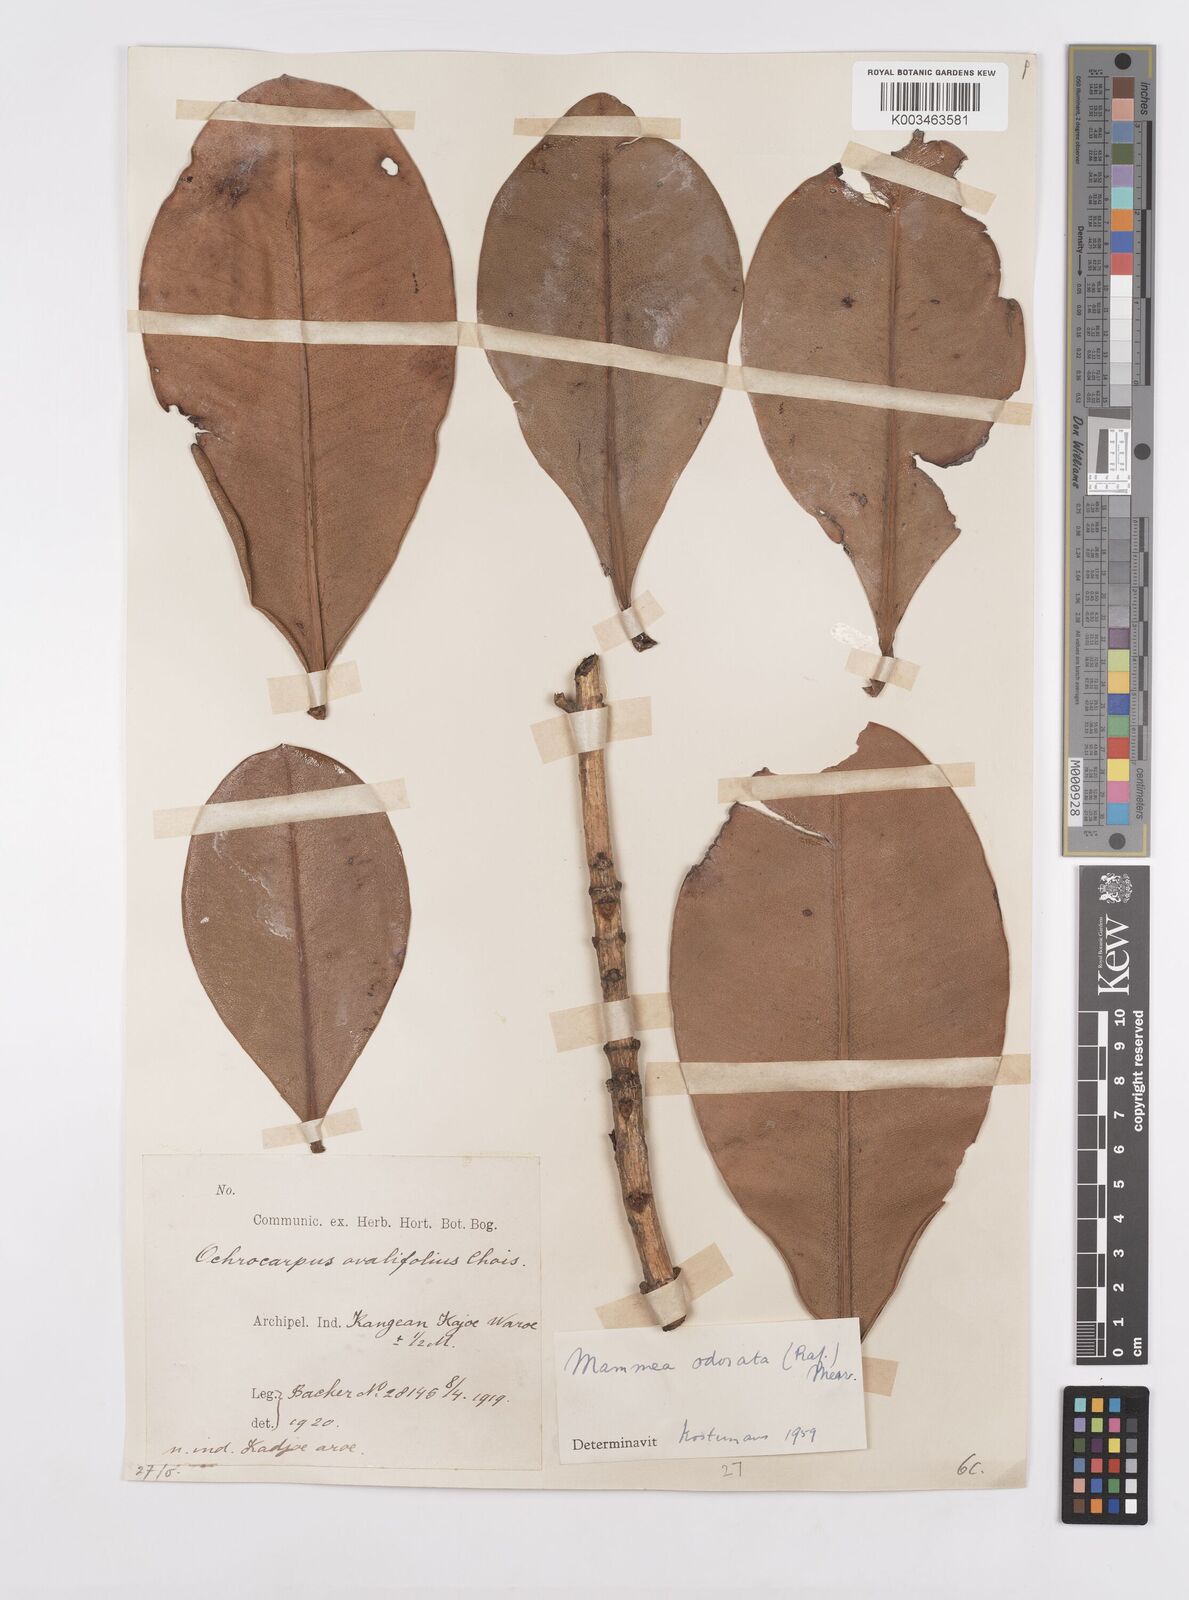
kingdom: Plantae
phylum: Tracheophyta
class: Magnoliopsida
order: Malpighiales
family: Calophyllaceae
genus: Mammea
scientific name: Mammea odorata
